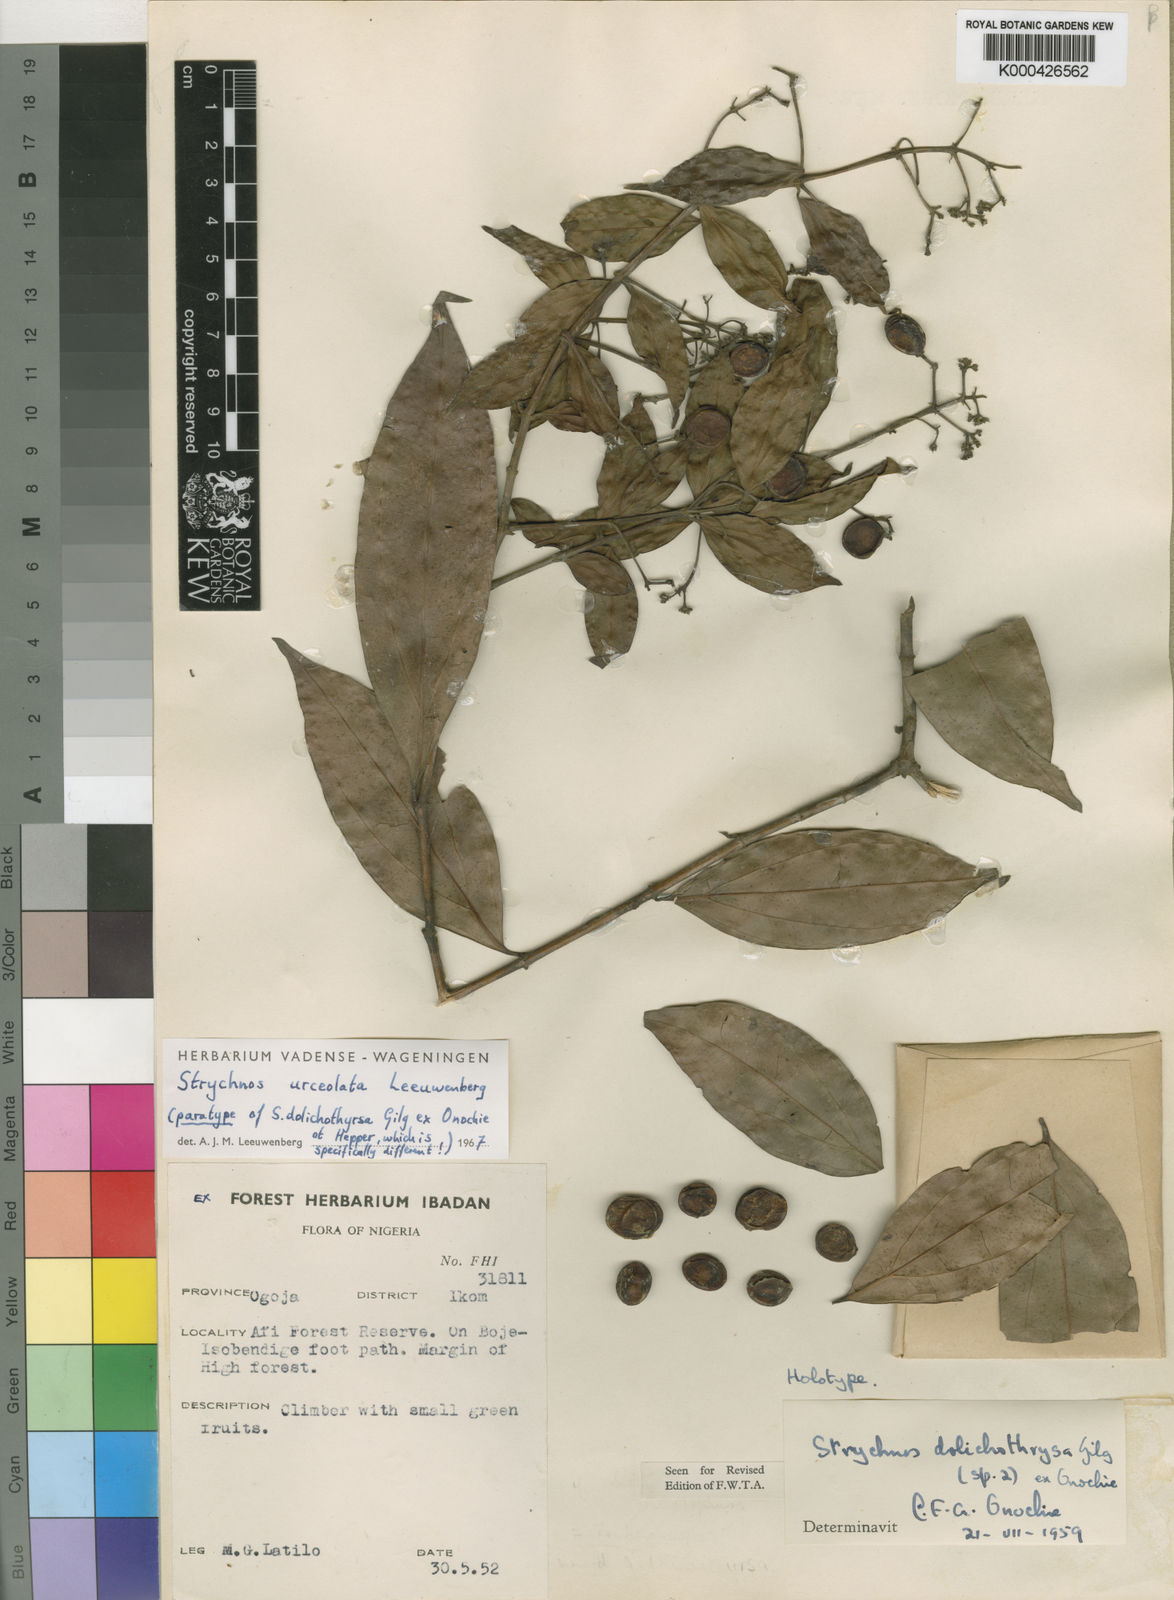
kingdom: Plantae
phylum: Tracheophyta
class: Magnoliopsida
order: Gentianales
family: Loganiaceae
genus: Strychnos
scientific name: Strychnos urceolata
